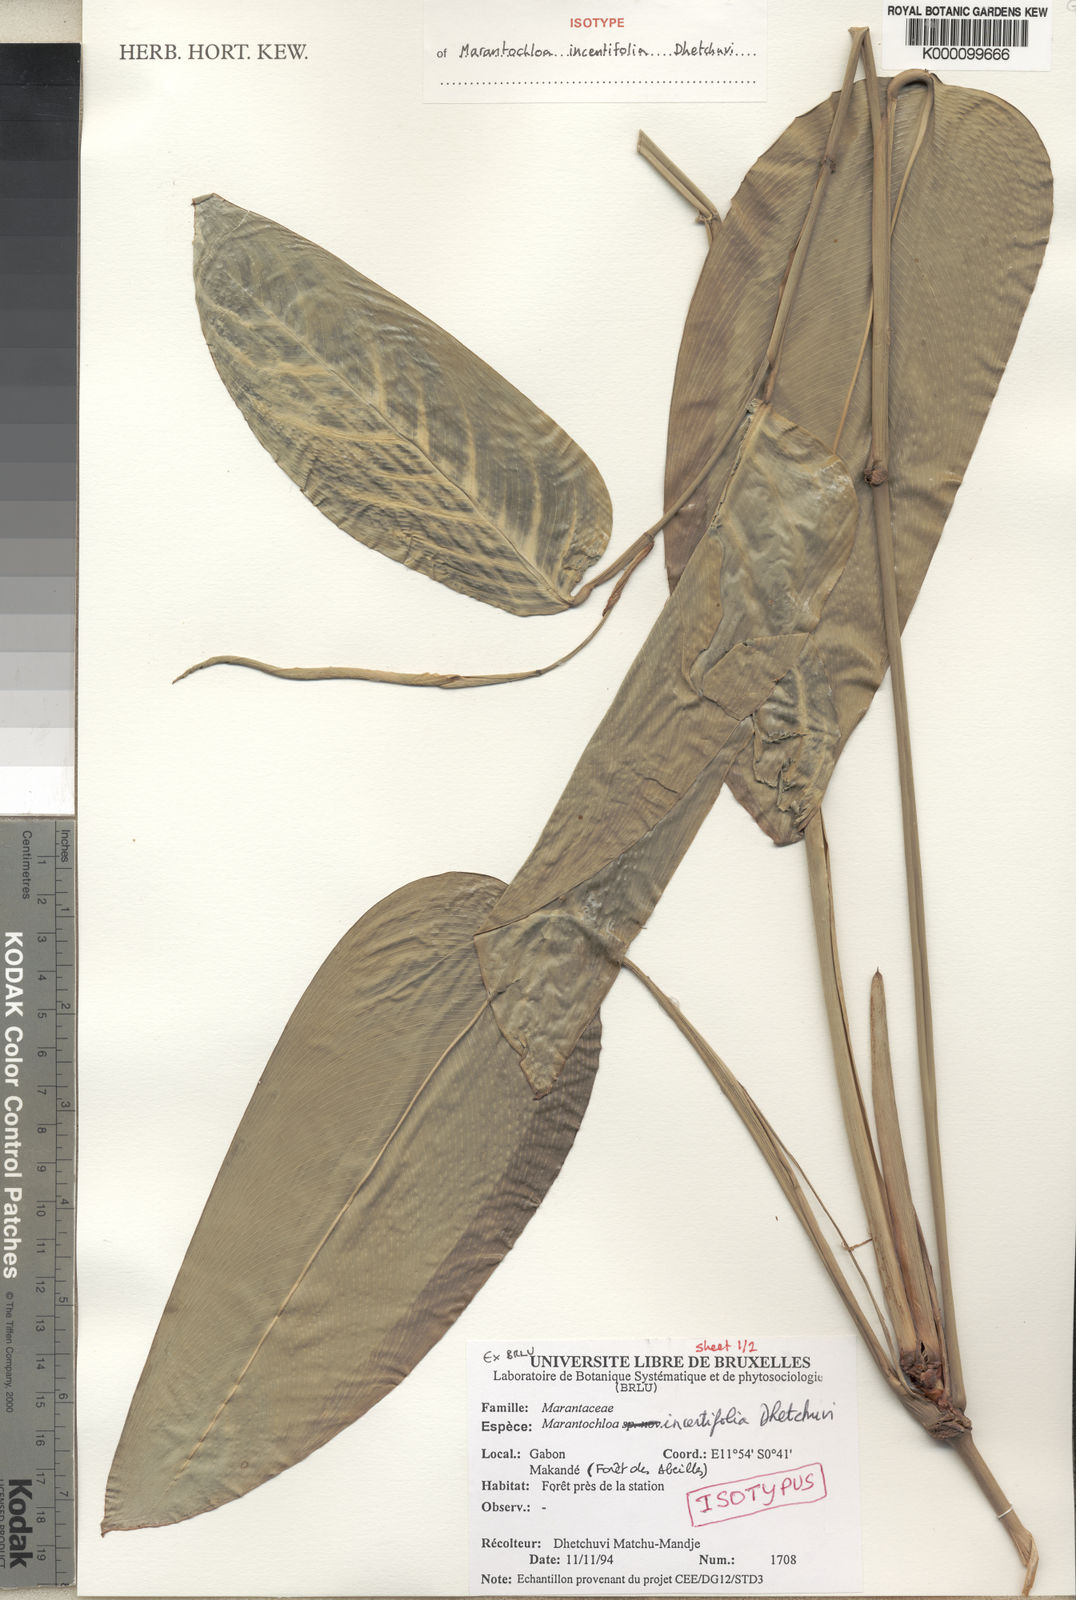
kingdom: Plantae
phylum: Tracheophyta
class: Liliopsida
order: Zingiberales
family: Marantaceae
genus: Marantochloa
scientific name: Marantochloa incertifolia
